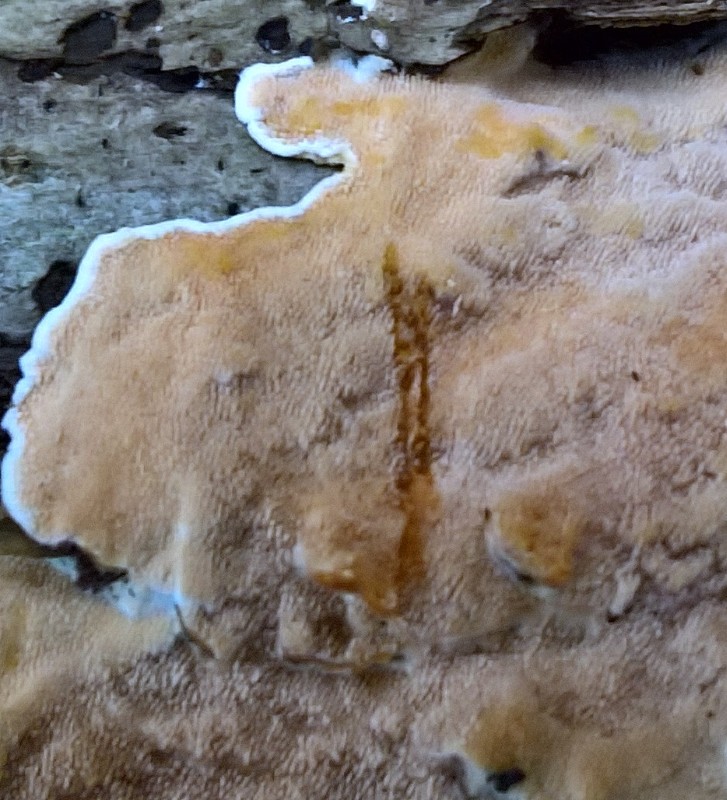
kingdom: Fungi
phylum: Basidiomycota
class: Agaricomycetes
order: Polyporales
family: Steccherinaceae
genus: Steccherinum
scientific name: Steccherinum ochraceum
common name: almindelig skønpig
